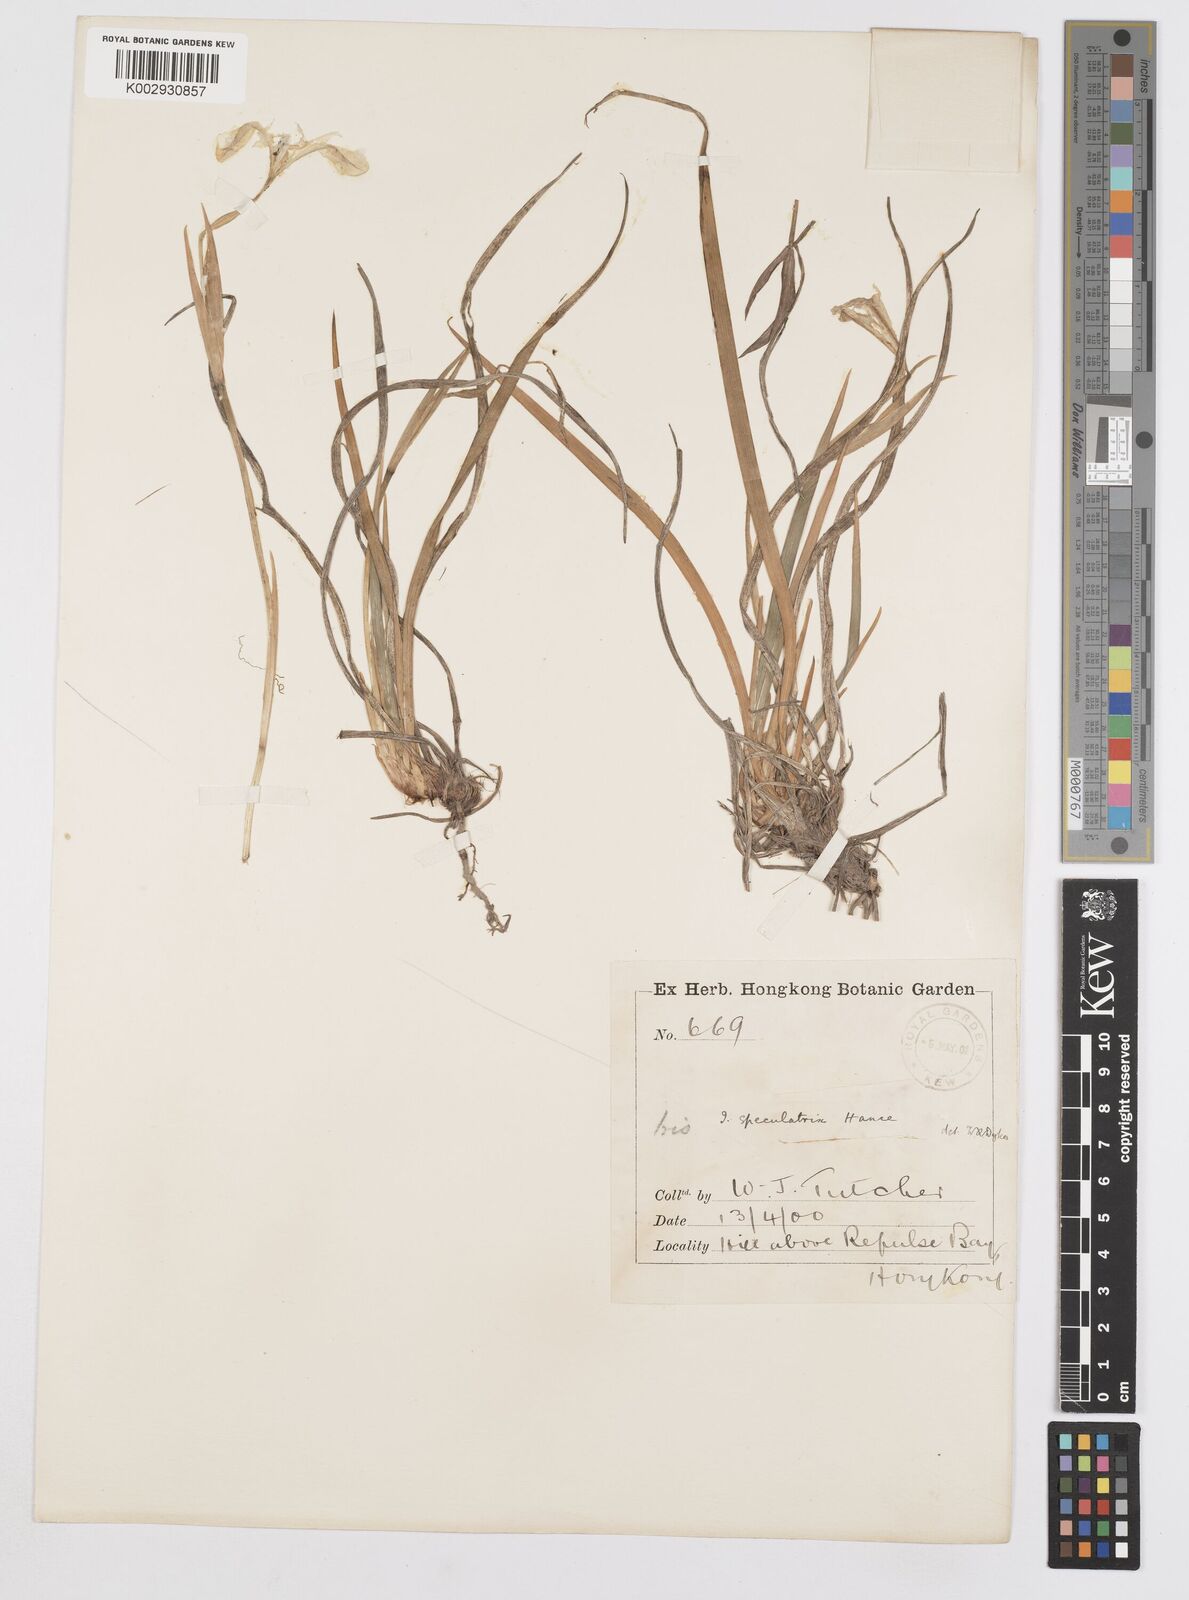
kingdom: Plantae
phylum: Tracheophyta
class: Liliopsida
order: Asparagales
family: Iridaceae
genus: Iris
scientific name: Iris speculatrix
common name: Small-flower iris
